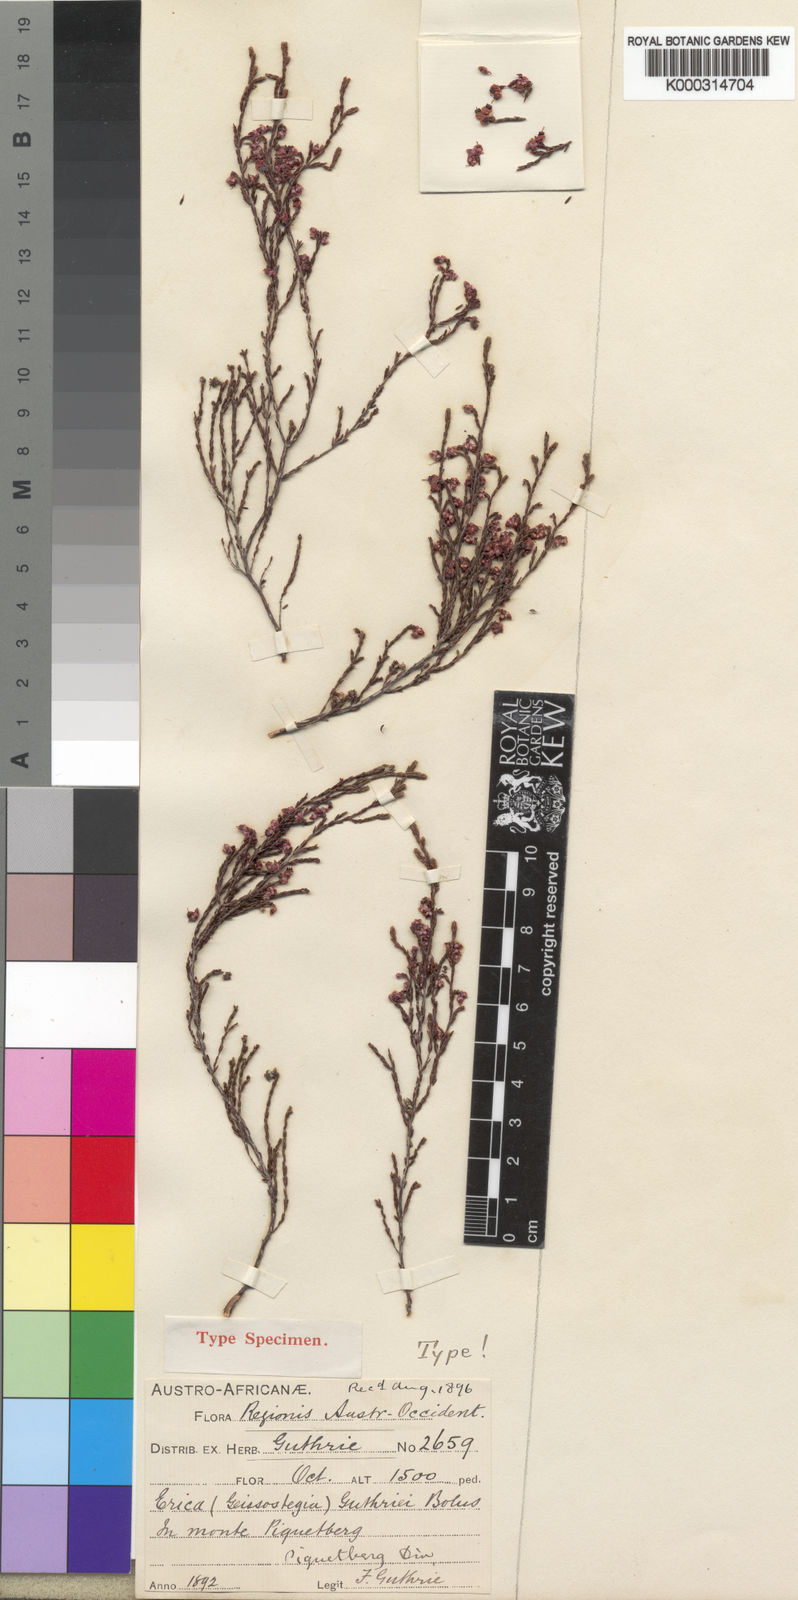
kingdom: Plantae
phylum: Tracheophyta
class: Magnoliopsida
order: Ericales
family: Ericaceae
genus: Erica
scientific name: Erica guthriei
